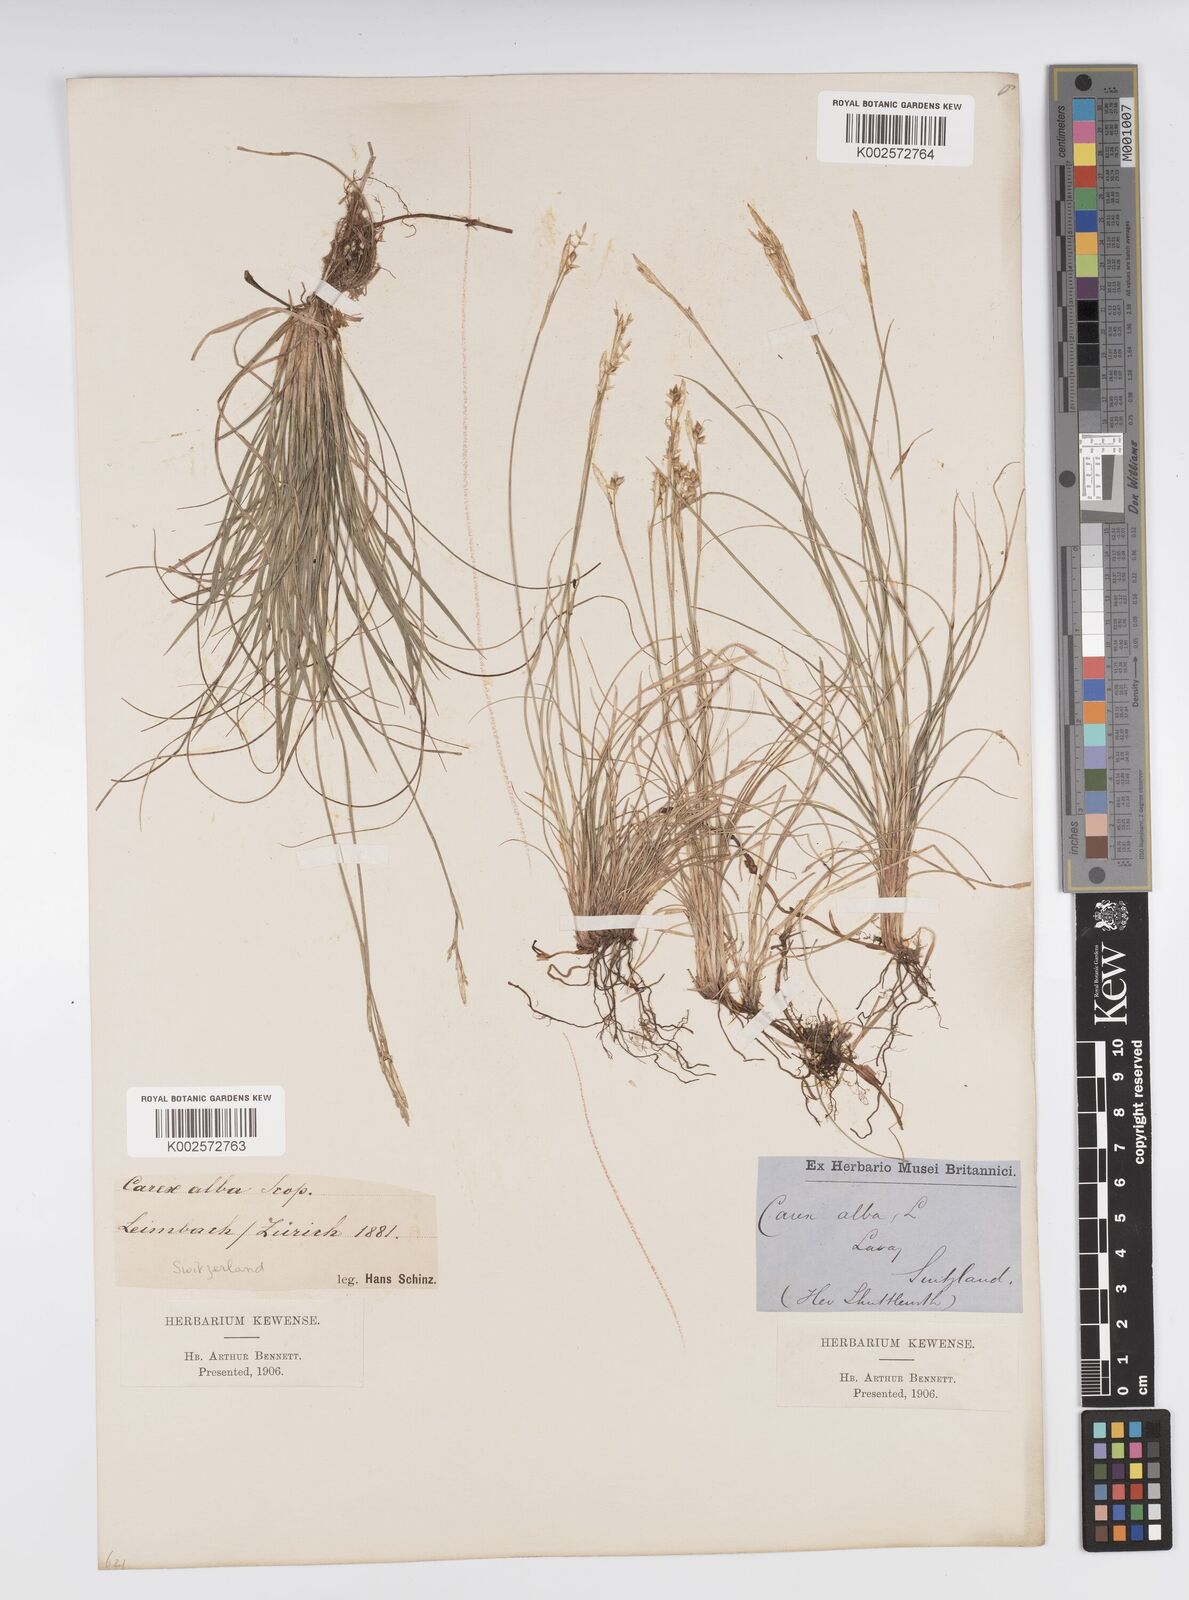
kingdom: Plantae
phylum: Tracheophyta
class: Liliopsida
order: Poales
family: Cyperaceae
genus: Carex
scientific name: Carex alba
